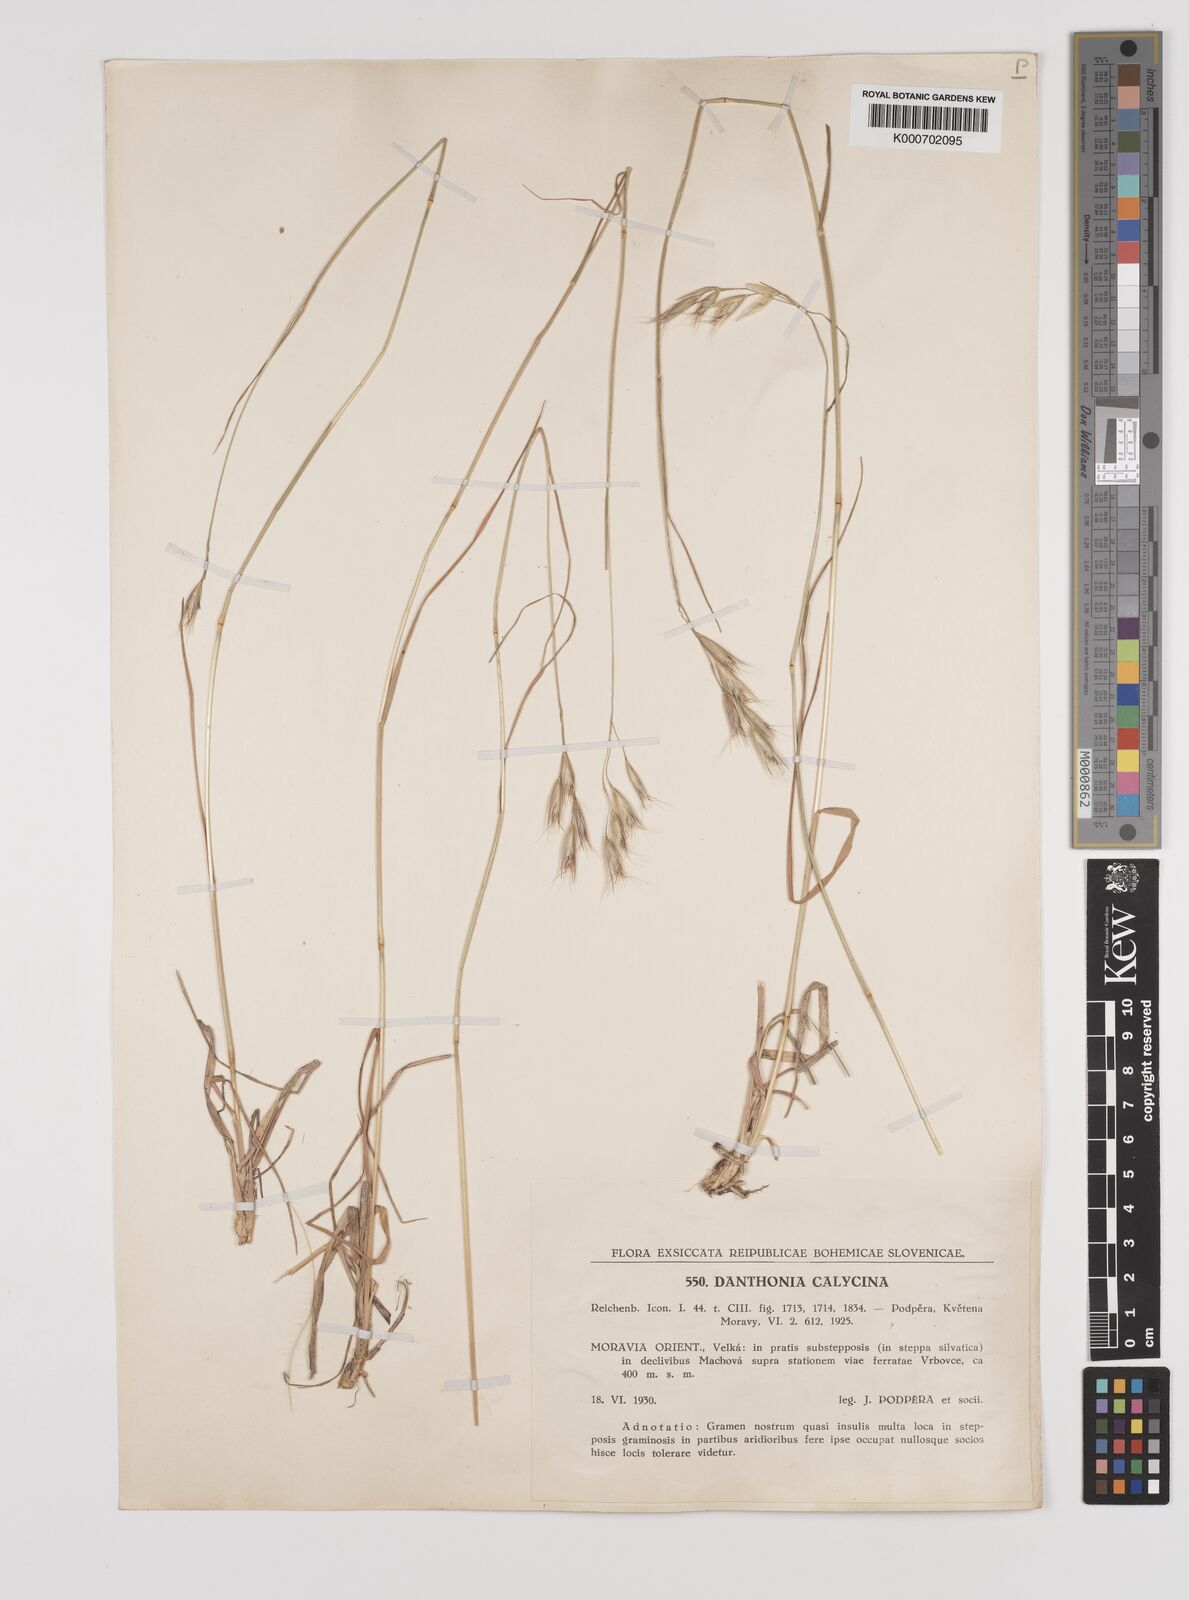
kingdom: Plantae
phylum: Tracheophyta
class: Liliopsida
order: Poales
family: Poaceae
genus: Danthonia
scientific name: Danthonia alpina
